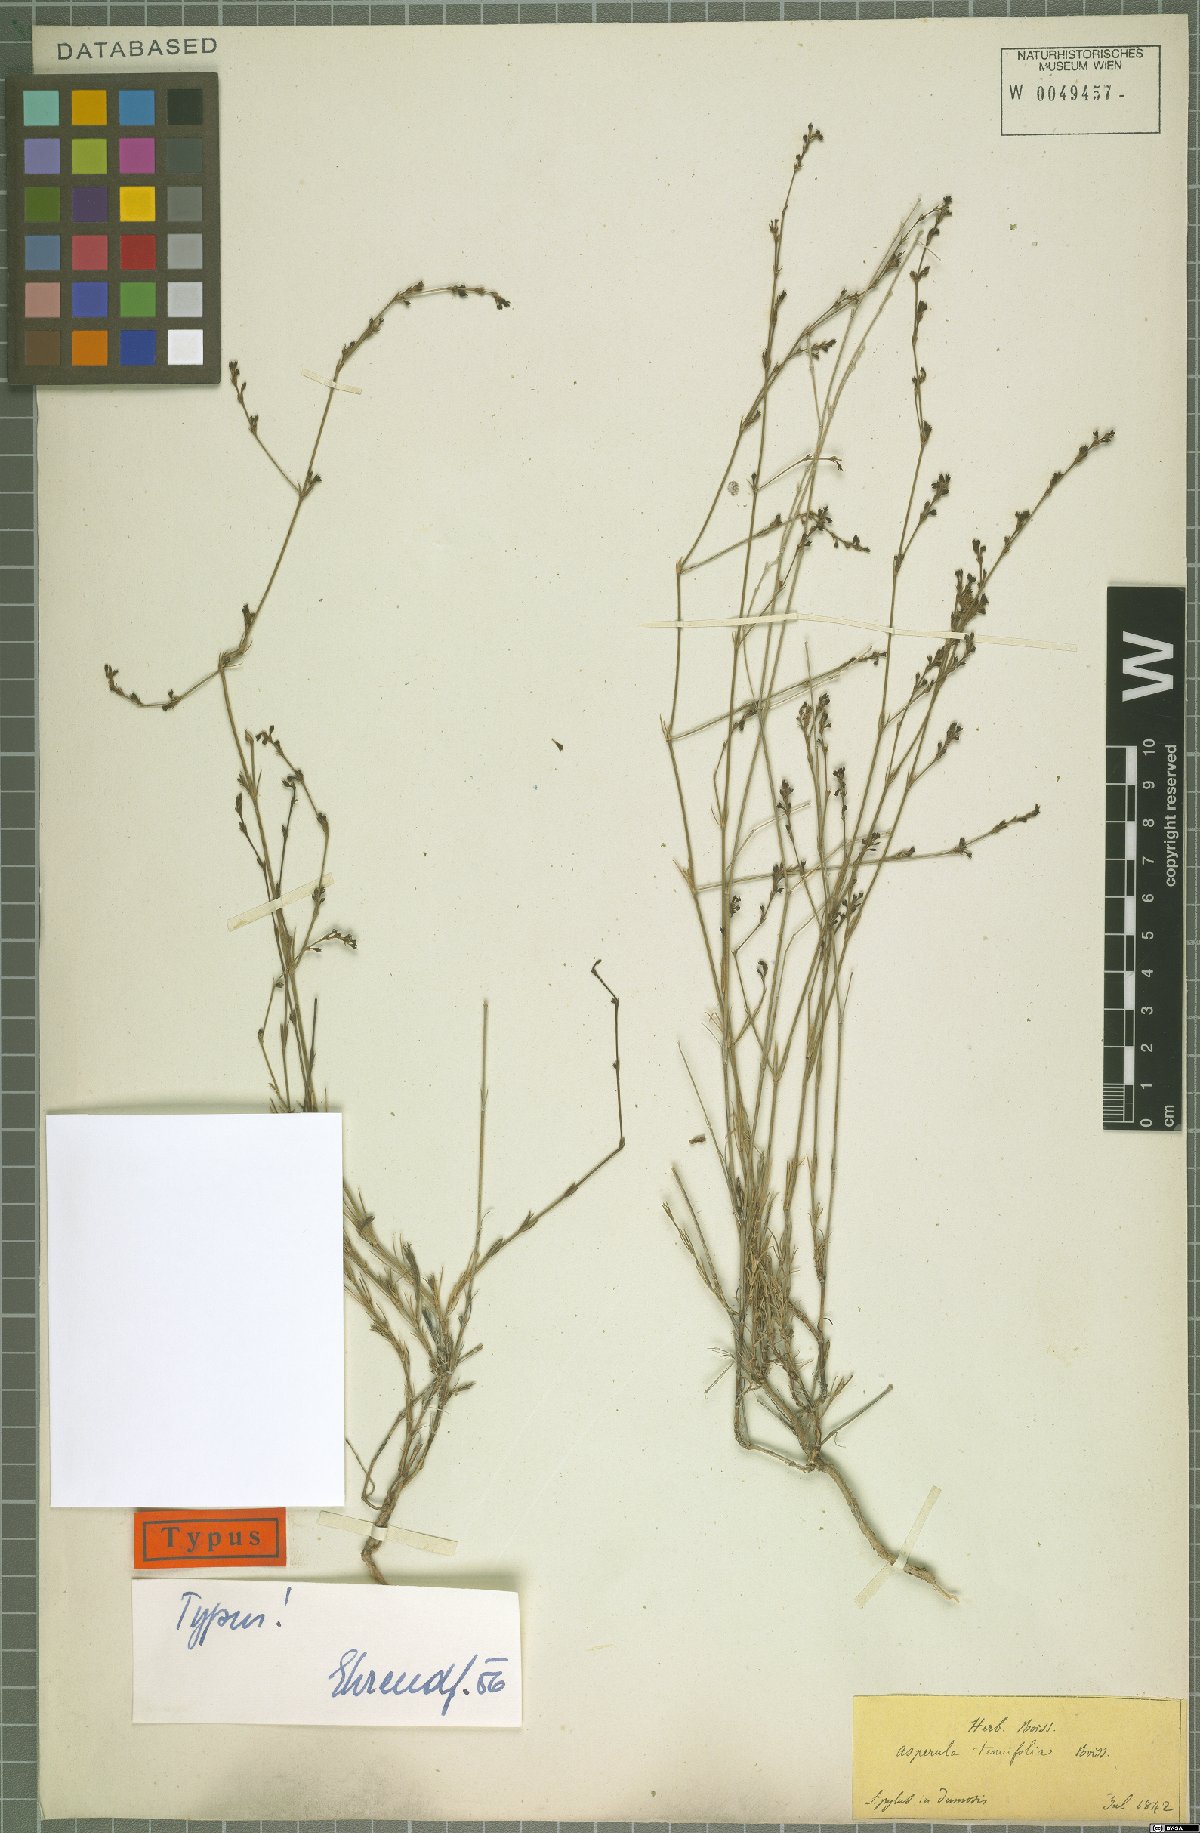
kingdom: Plantae
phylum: Tracheophyta
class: Magnoliopsida
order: Gentianales
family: Rubiaceae
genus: Cynanchica
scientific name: Cynanchica tenuifolia
